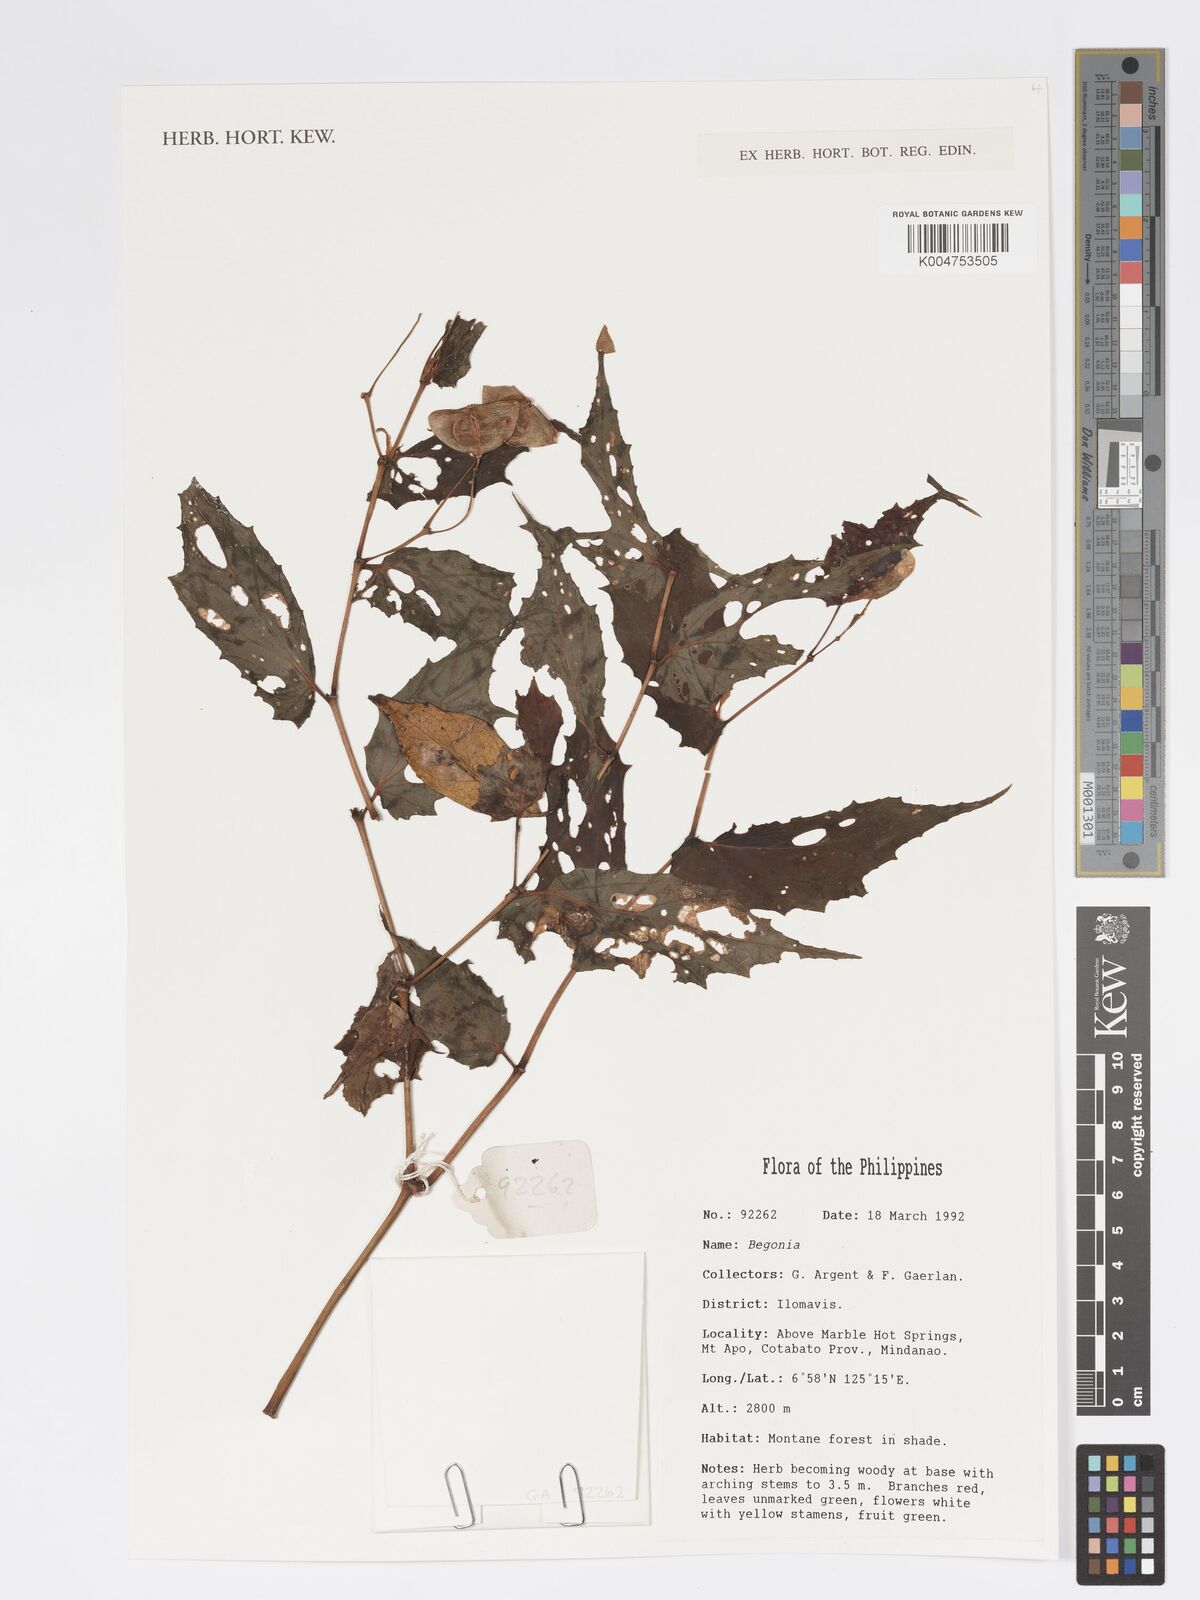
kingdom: Plantae
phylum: Tracheophyta
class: Magnoliopsida
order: Cucurbitales
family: Begoniaceae
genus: Begonia
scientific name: Begonia
